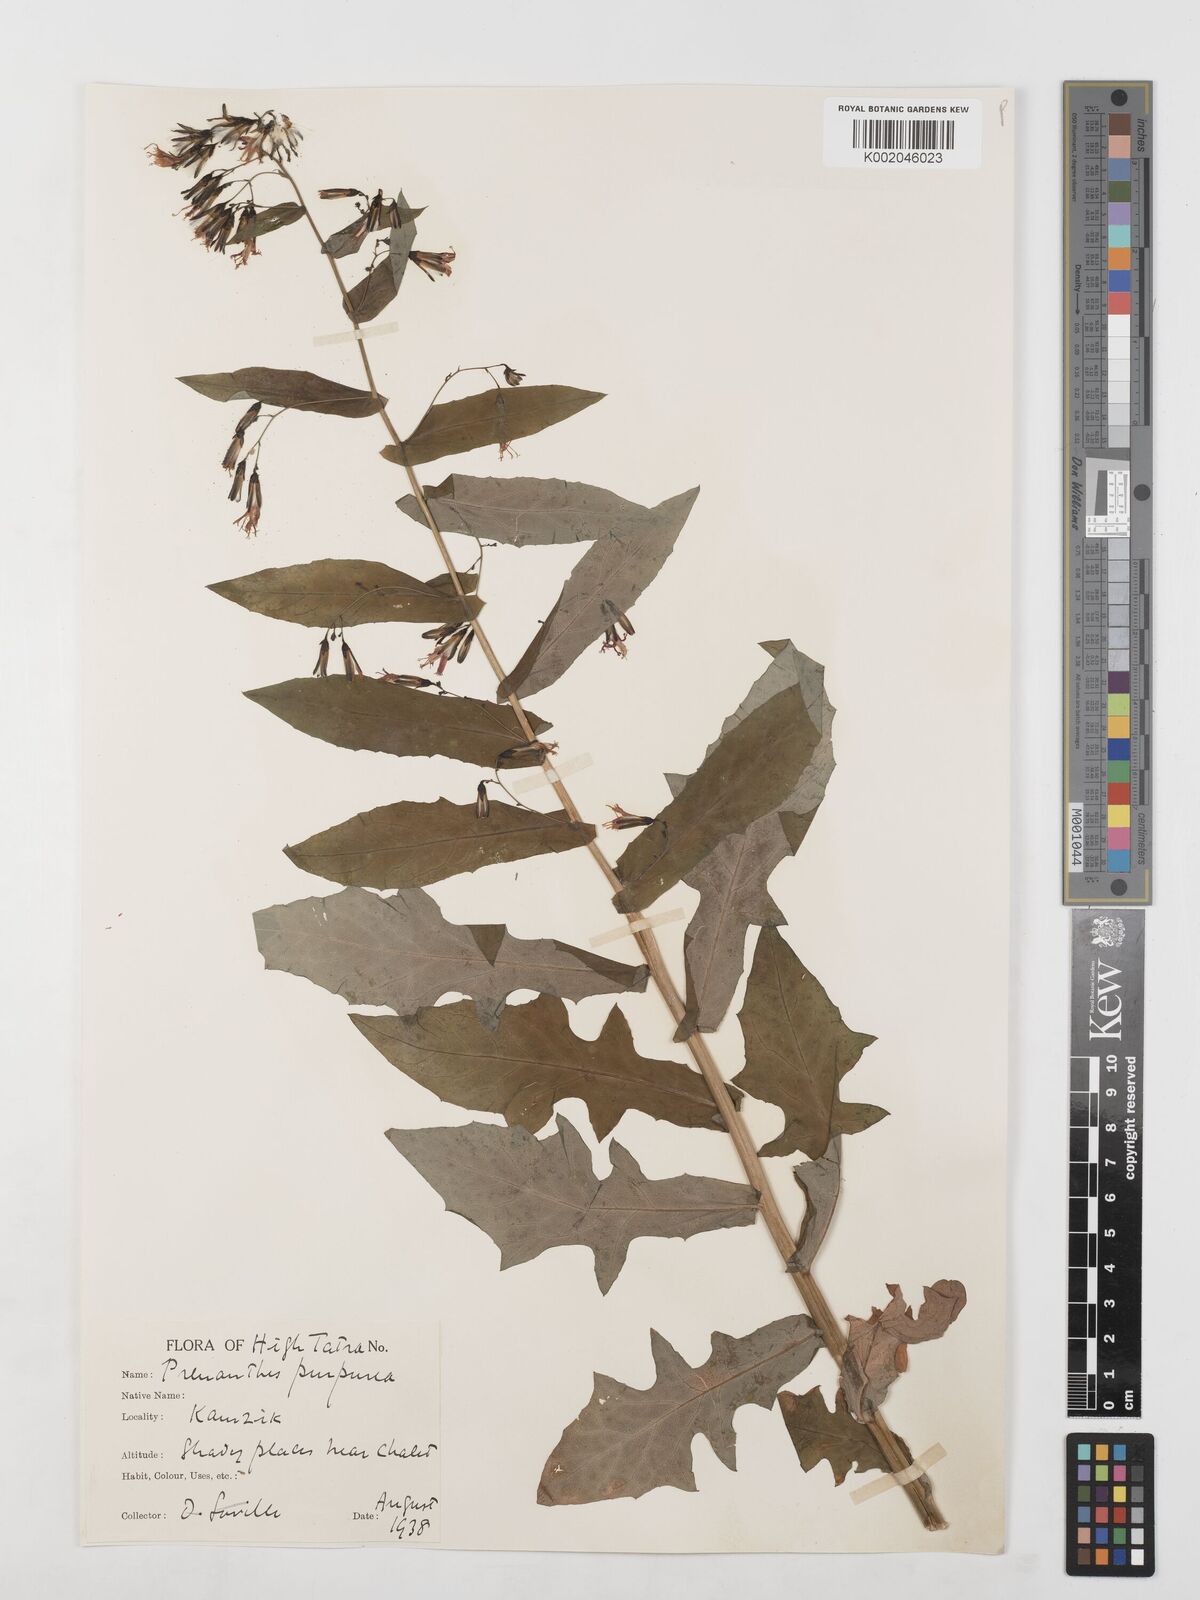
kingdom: Plantae
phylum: Tracheophyta
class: Magnoliopsida
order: Asterales
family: Asteraceae
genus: Prenanthes
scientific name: Prenanthes purpurea
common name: Purple lettuce
